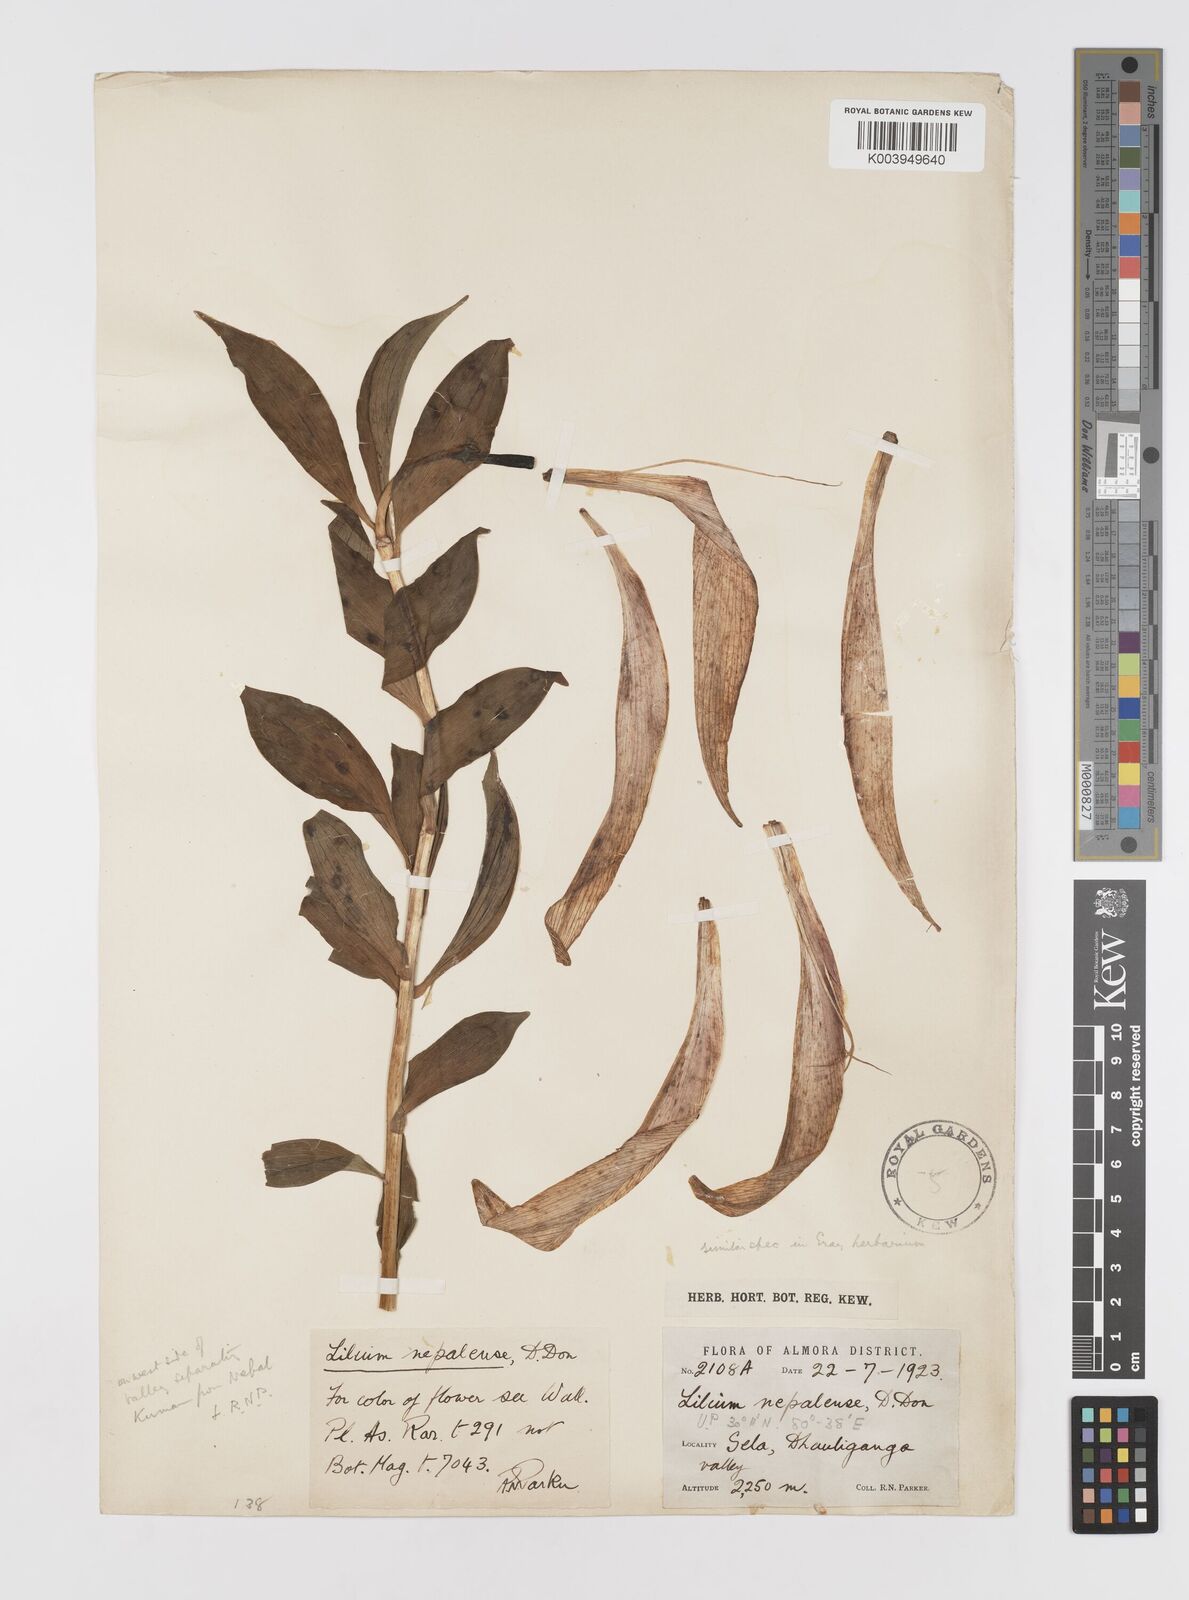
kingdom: Plantae
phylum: Tracheophyta
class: Liliopsida
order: Liliales
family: Liliaceae
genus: Lilium
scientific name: Lilium nepalense
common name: Nepal lily
